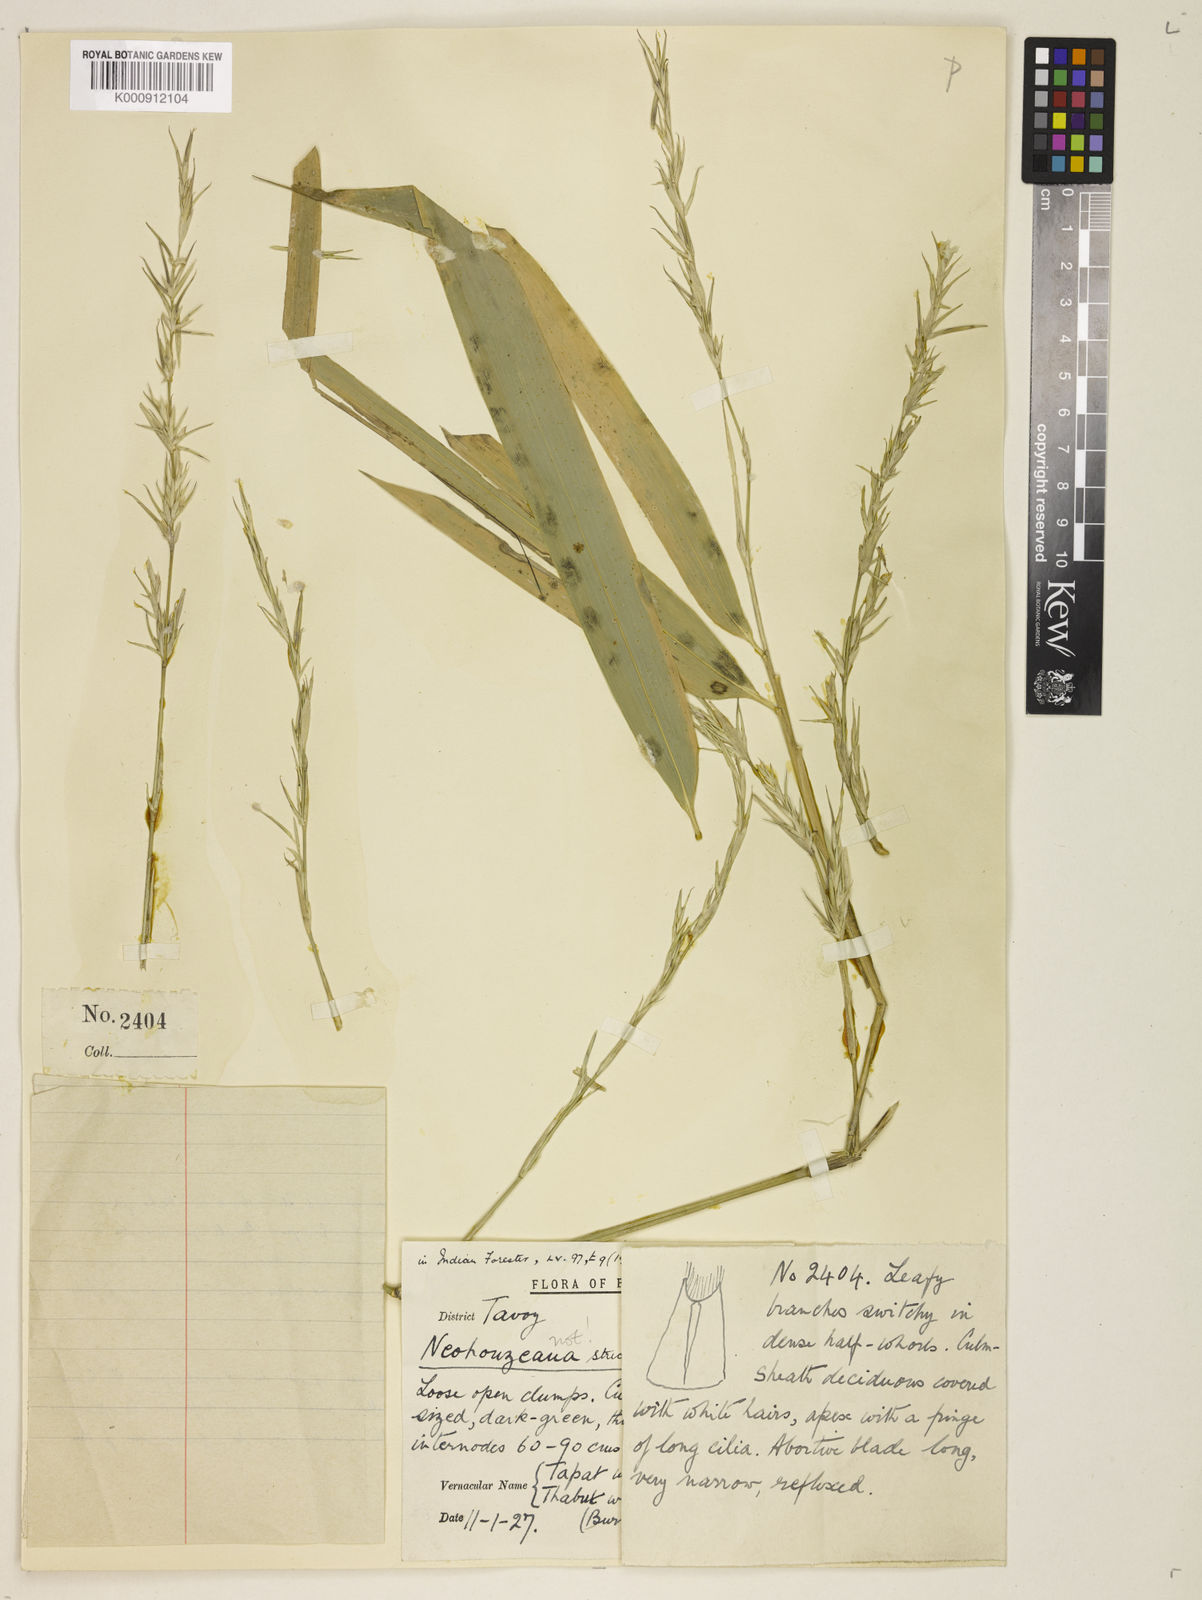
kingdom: Plantae
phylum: Tracheophyta
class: Liliopsida
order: Poales
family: Poaceae
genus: Schizostachyum
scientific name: Schizostachyum strictum
